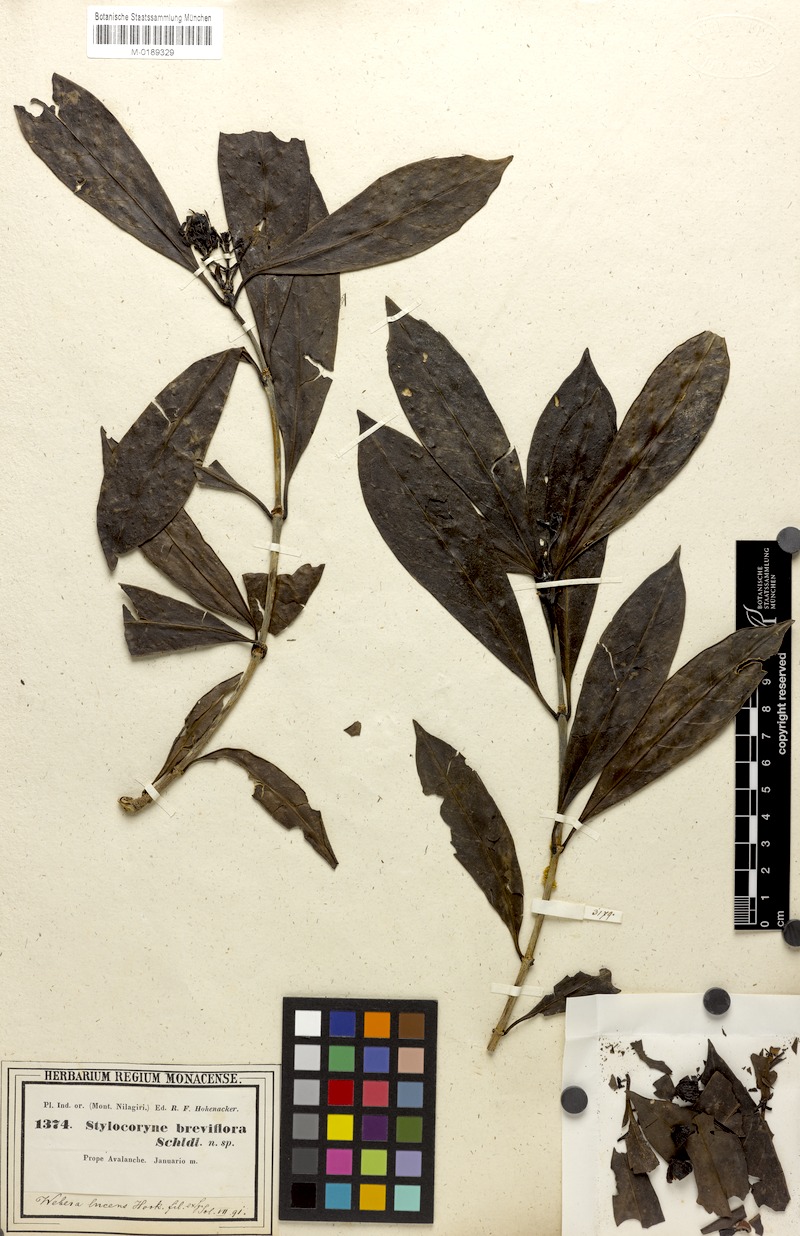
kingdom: Plantae
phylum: Tracheophyta
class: Magnoliopsida
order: Gentianales
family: Rubiaceae
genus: Tarenna
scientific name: Tarenna alpestris
